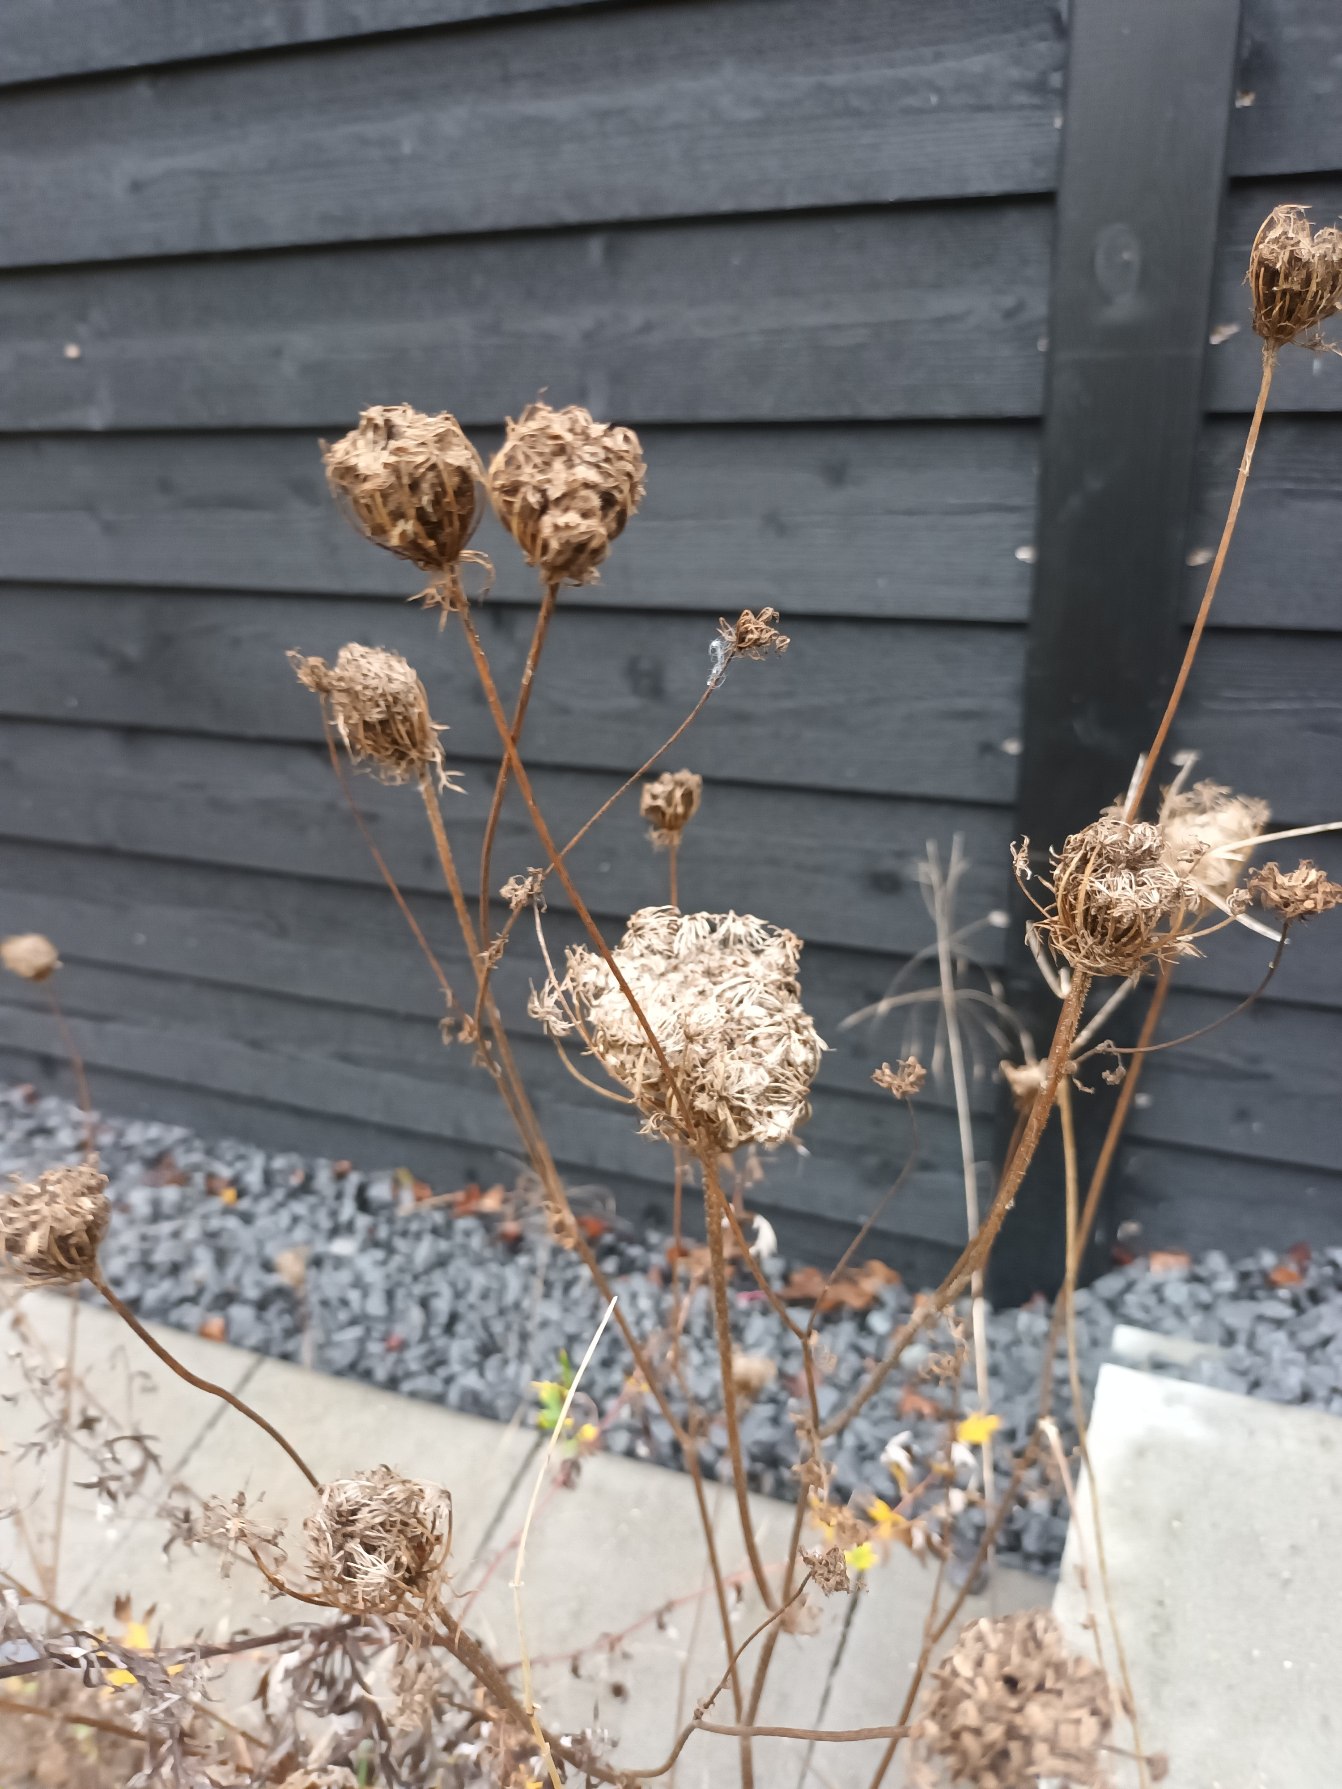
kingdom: Plantae
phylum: Tracheophyta
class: Magnoliopsida
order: Apiales
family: Apiaceae
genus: Daucus
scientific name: Daucus carota
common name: Gulerod
